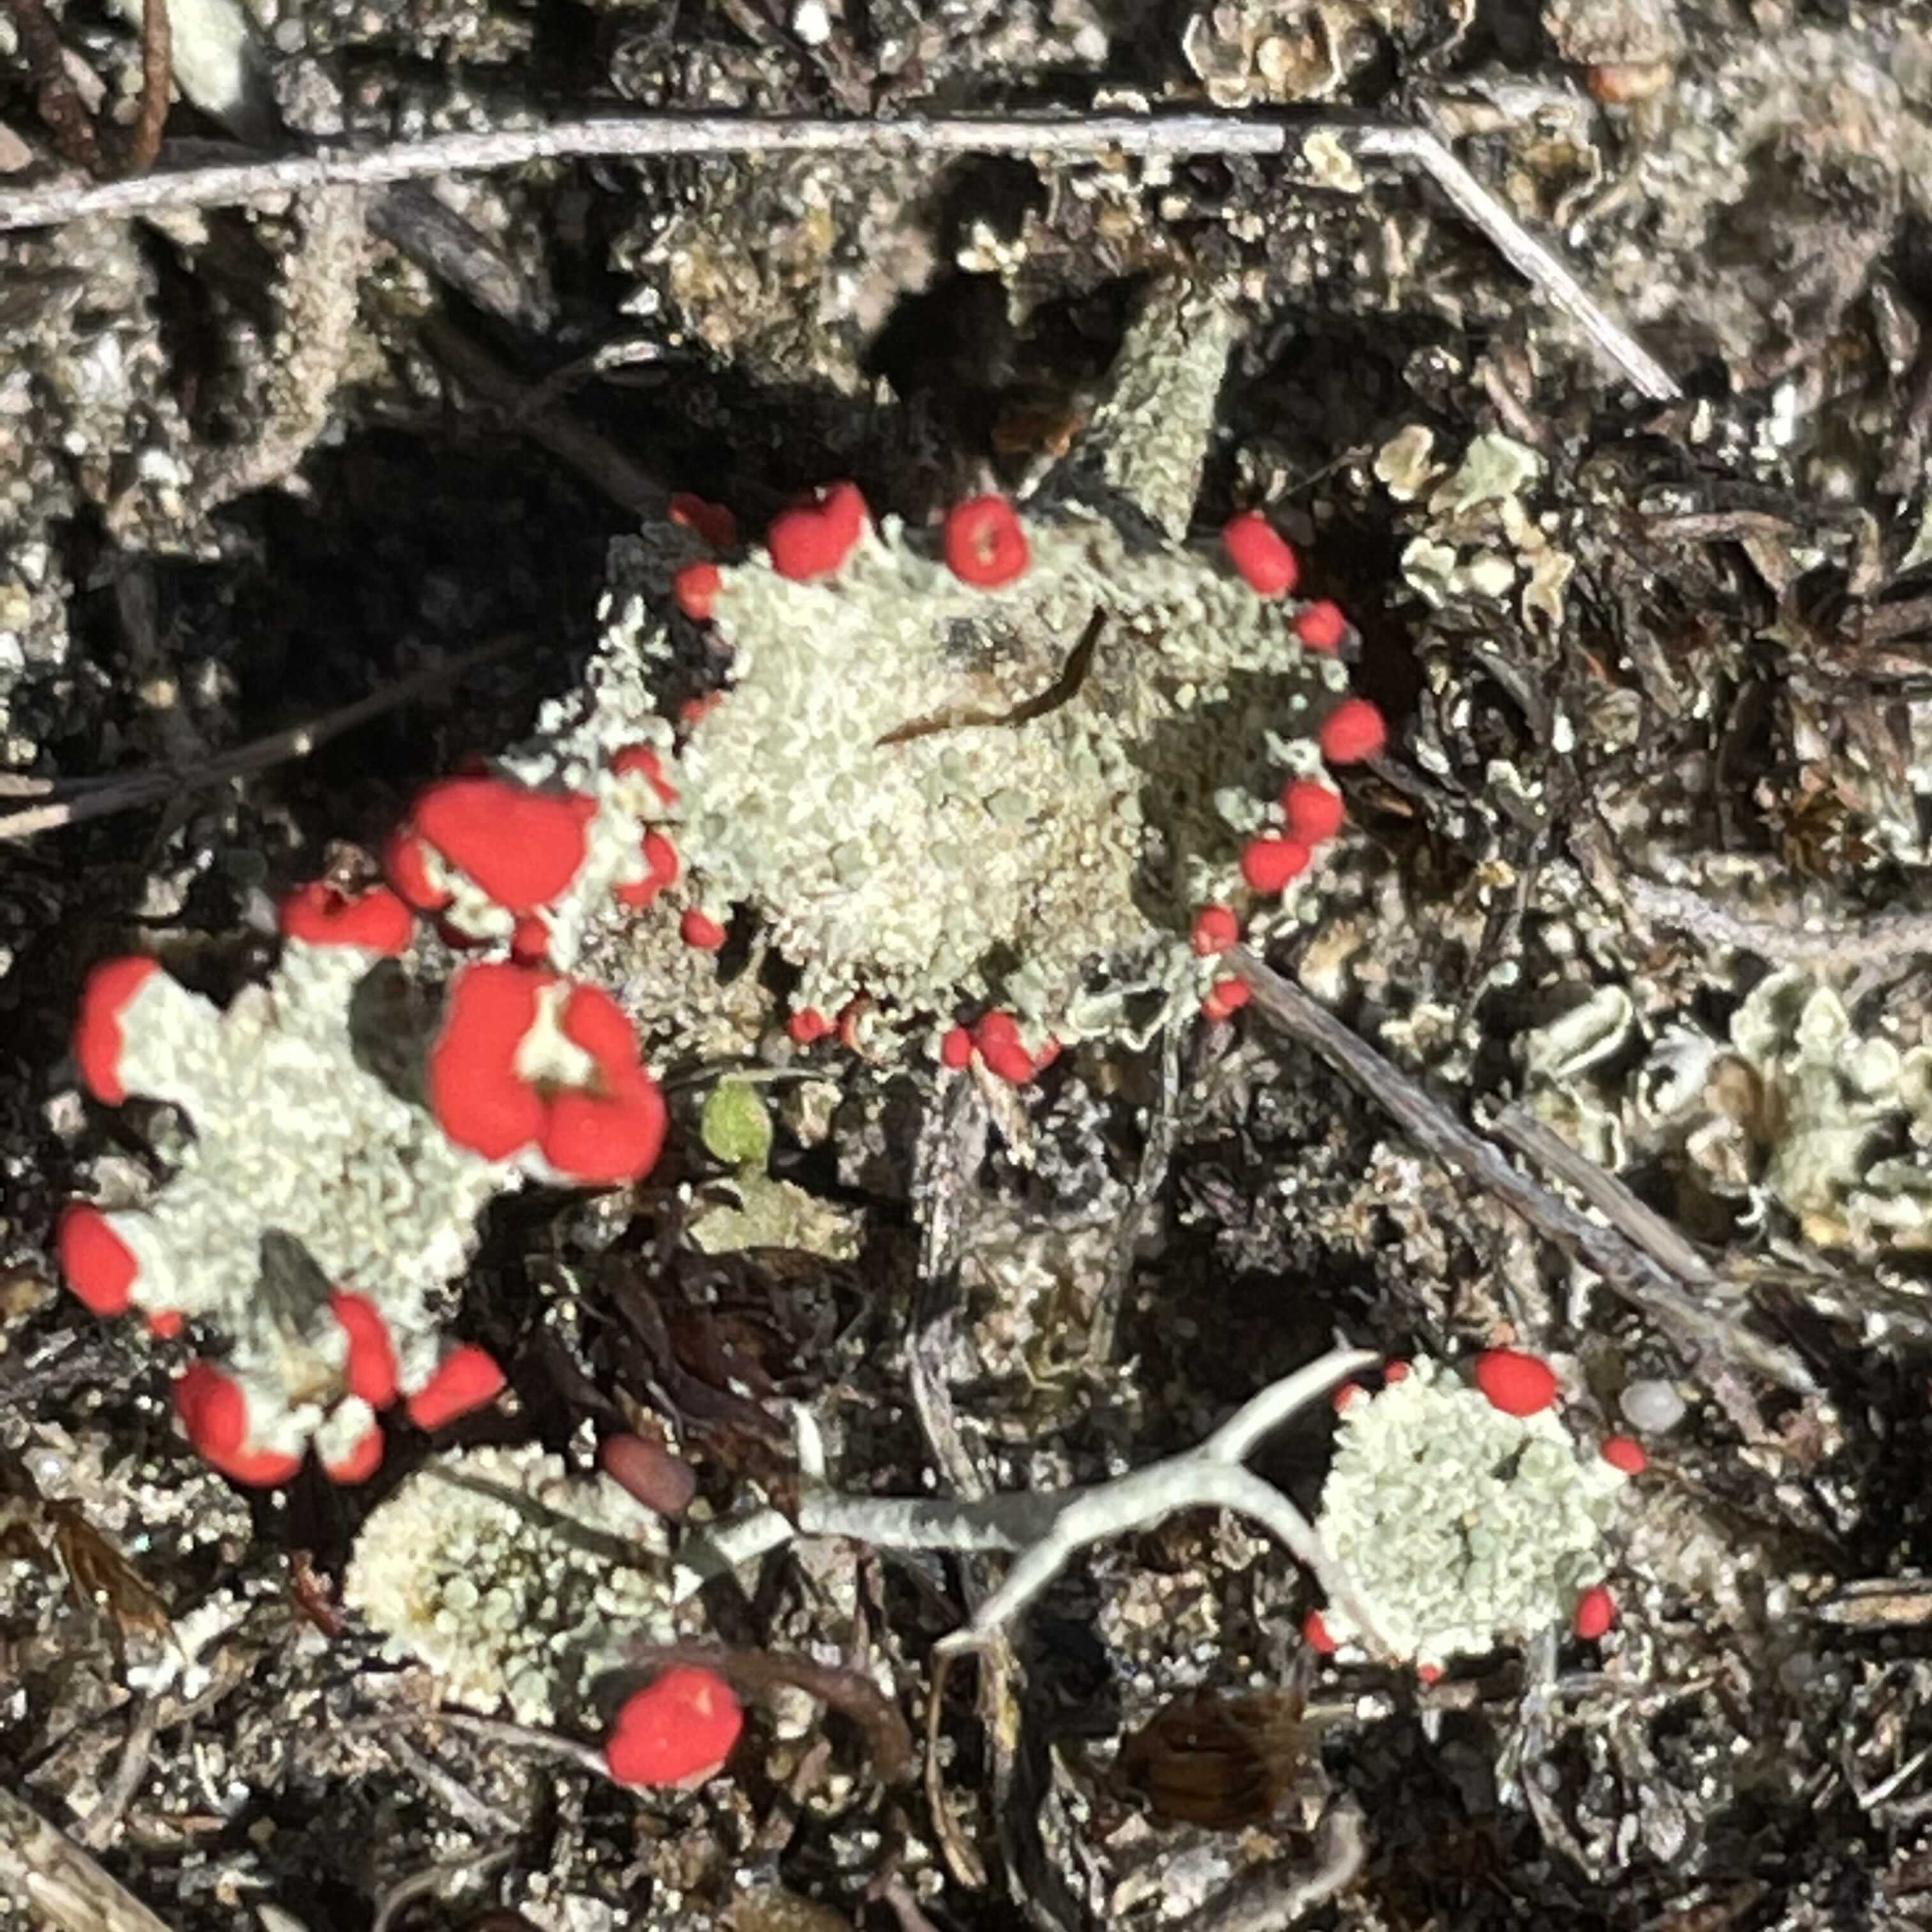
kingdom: Fungi
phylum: Ascomycota
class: Lecanoromycetes
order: Lecanorales
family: Cladoniaceae
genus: Cladonia
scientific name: Cladonia diversa
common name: rød bægerlav
